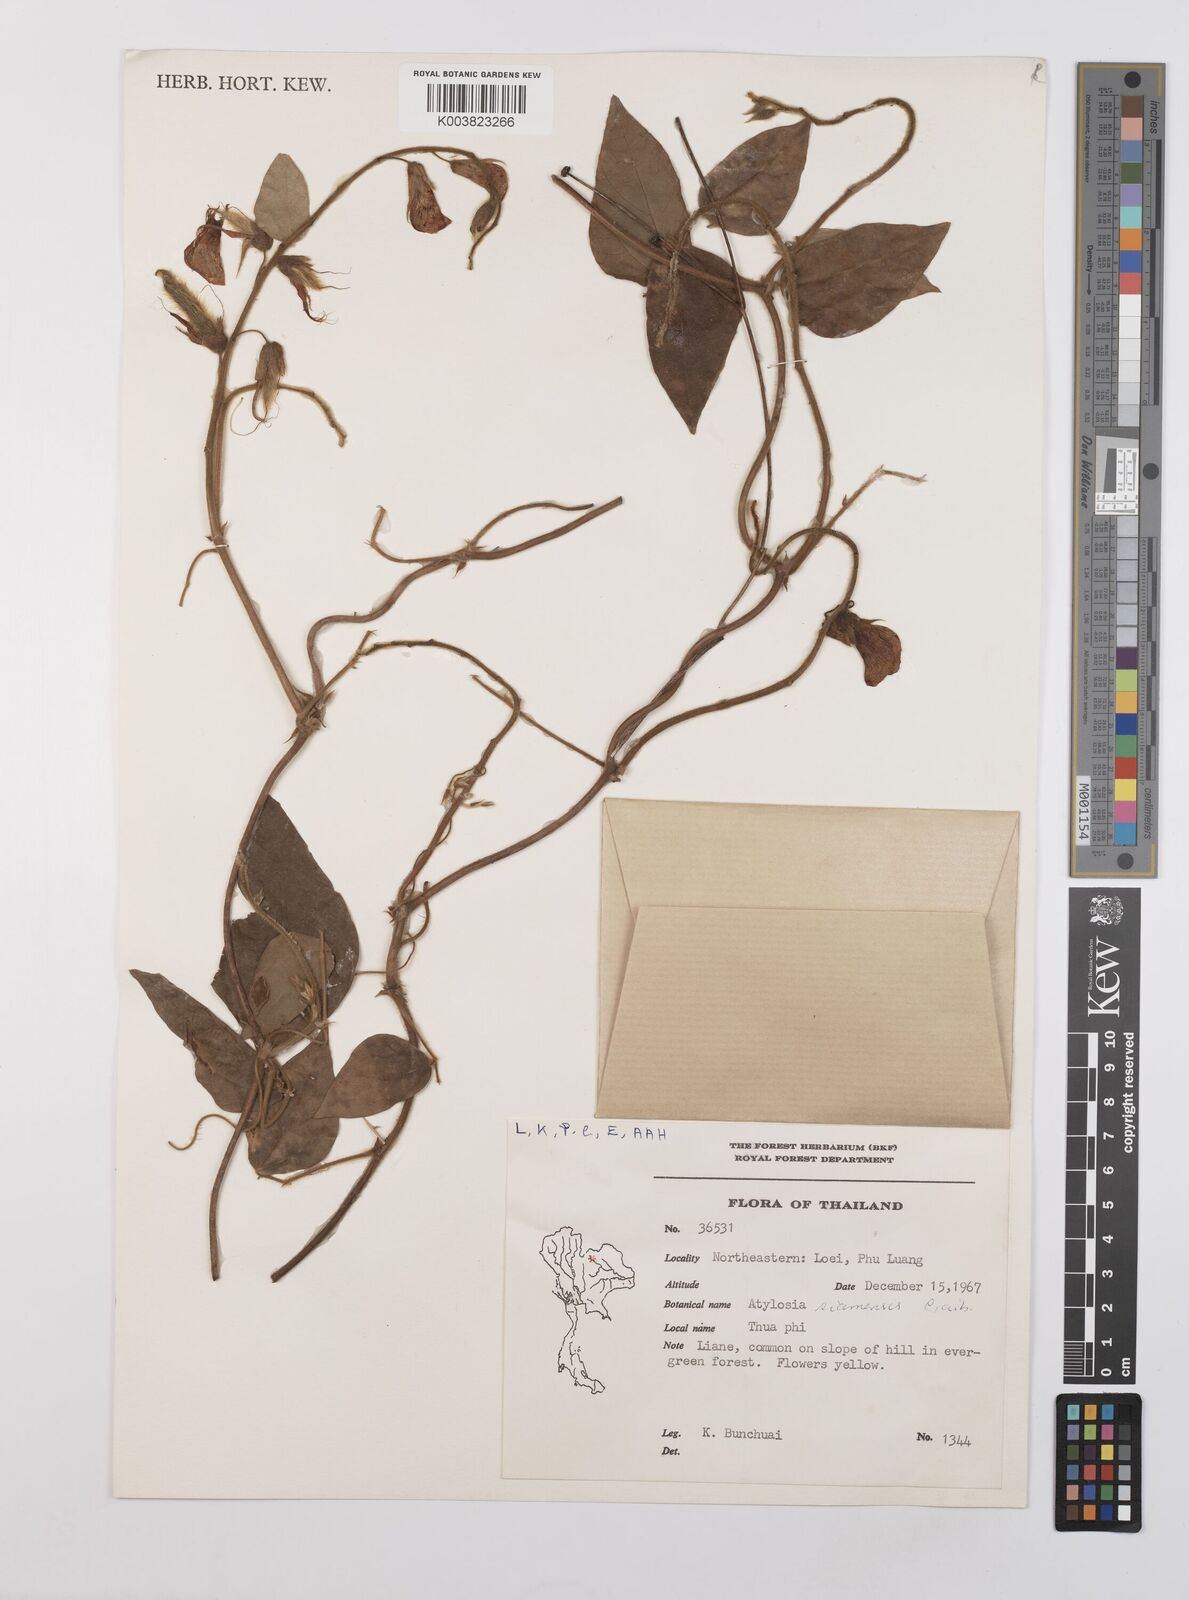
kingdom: Plantae
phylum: Tracheophyta
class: Magnoliopsida
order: Fabales
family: Fabaceae
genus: Cajanus
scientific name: Cajanus goensis
